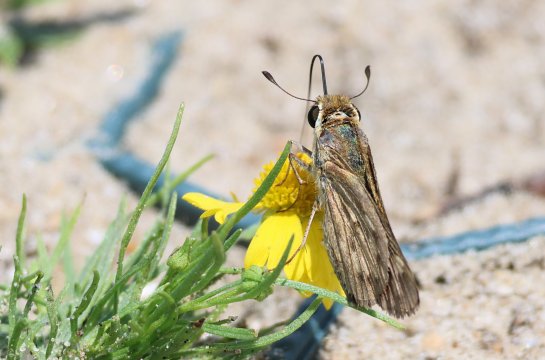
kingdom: Animalia
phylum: Arthropoda
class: Insecta
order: Lepidoptera
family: Hesperiidae
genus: Hylephila
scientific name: Hylephila phyleus
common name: Fiery Skipper
